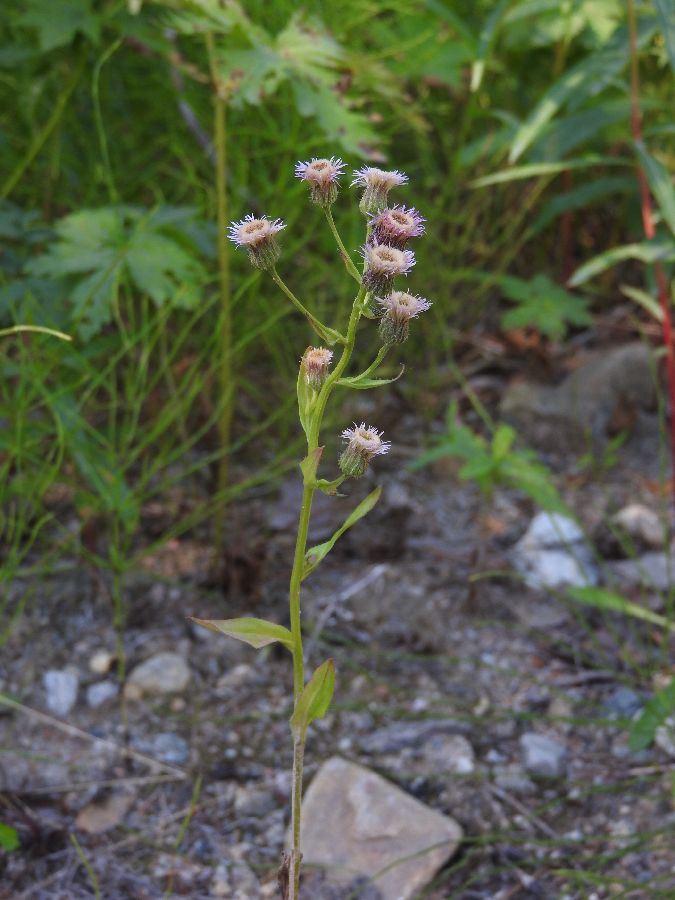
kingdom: Plantae
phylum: Tracheophyta
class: Magnoliopsida
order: Asterales
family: Asteraceae
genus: Erigeron
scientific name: Erigeron acris
